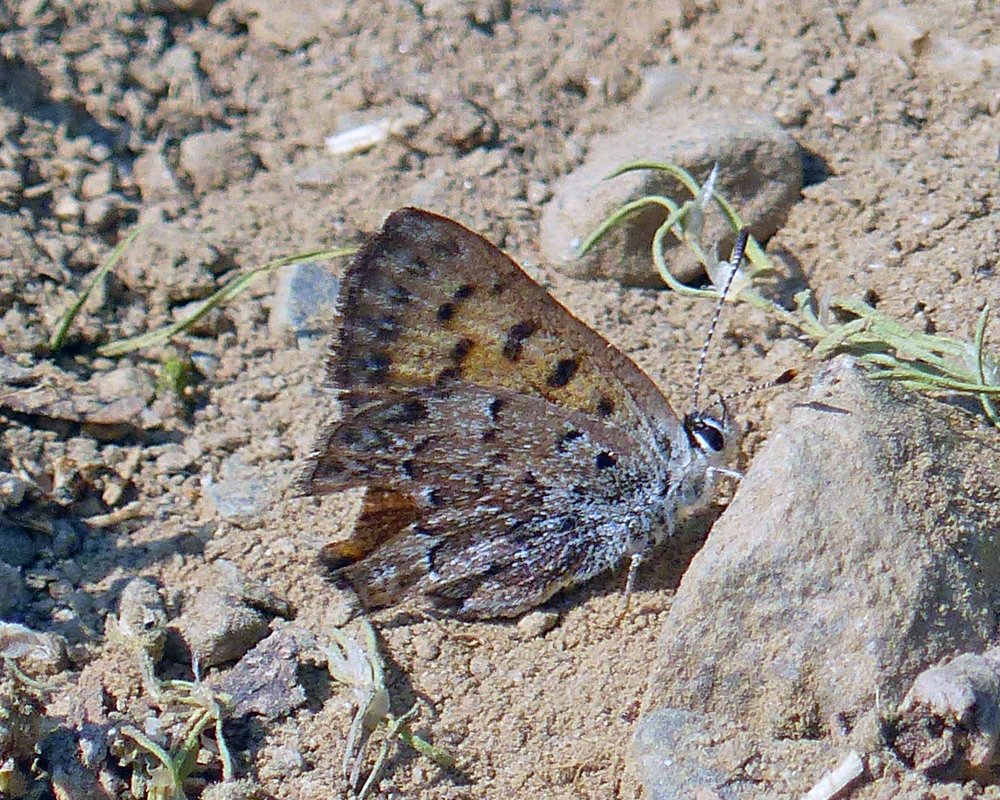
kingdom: Animalia
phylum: Arthropoda
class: Insecta
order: Lepidoptera
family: Lycaenidae
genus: Lycaena
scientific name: Lycaena mariposa
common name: Mariposa Copper
